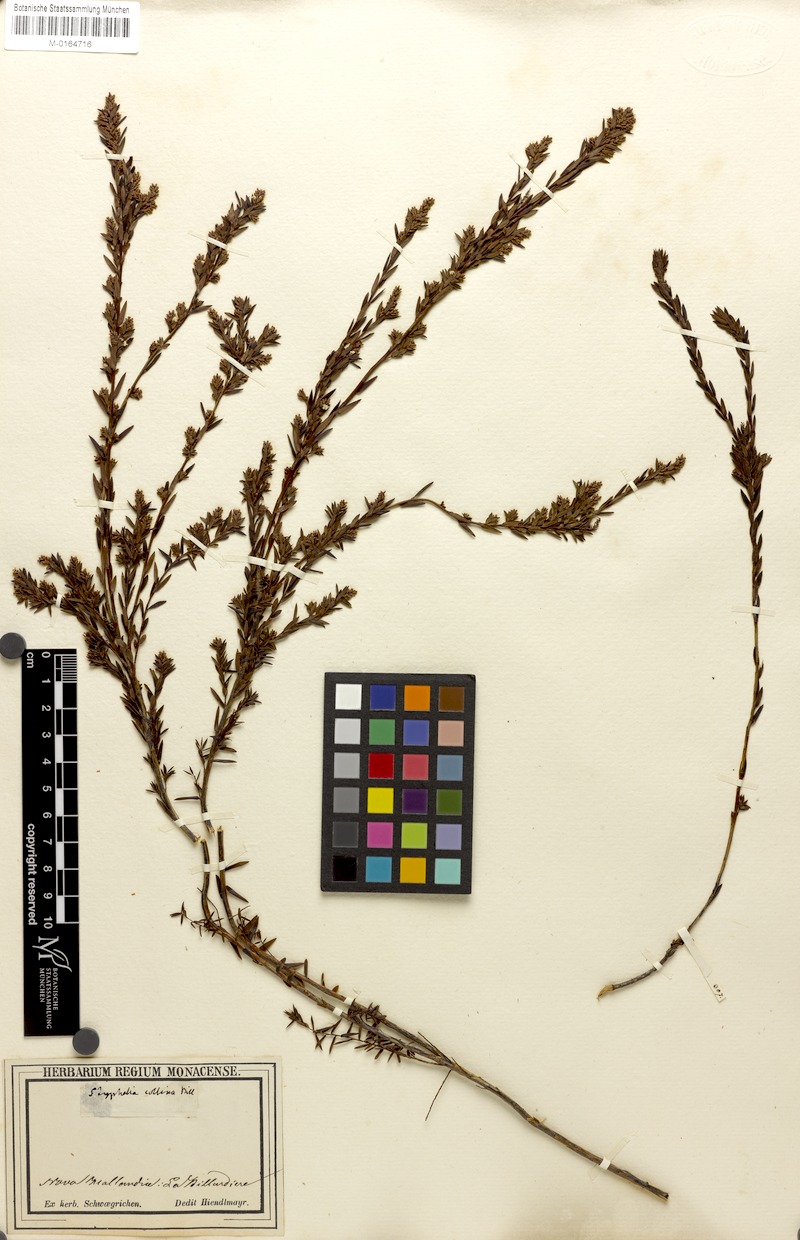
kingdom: Plantae
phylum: Tracheophyta
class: Magnoliopsida
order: Ericales
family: Ericaceae
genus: Leucopogon
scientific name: Leucopogon collinus
